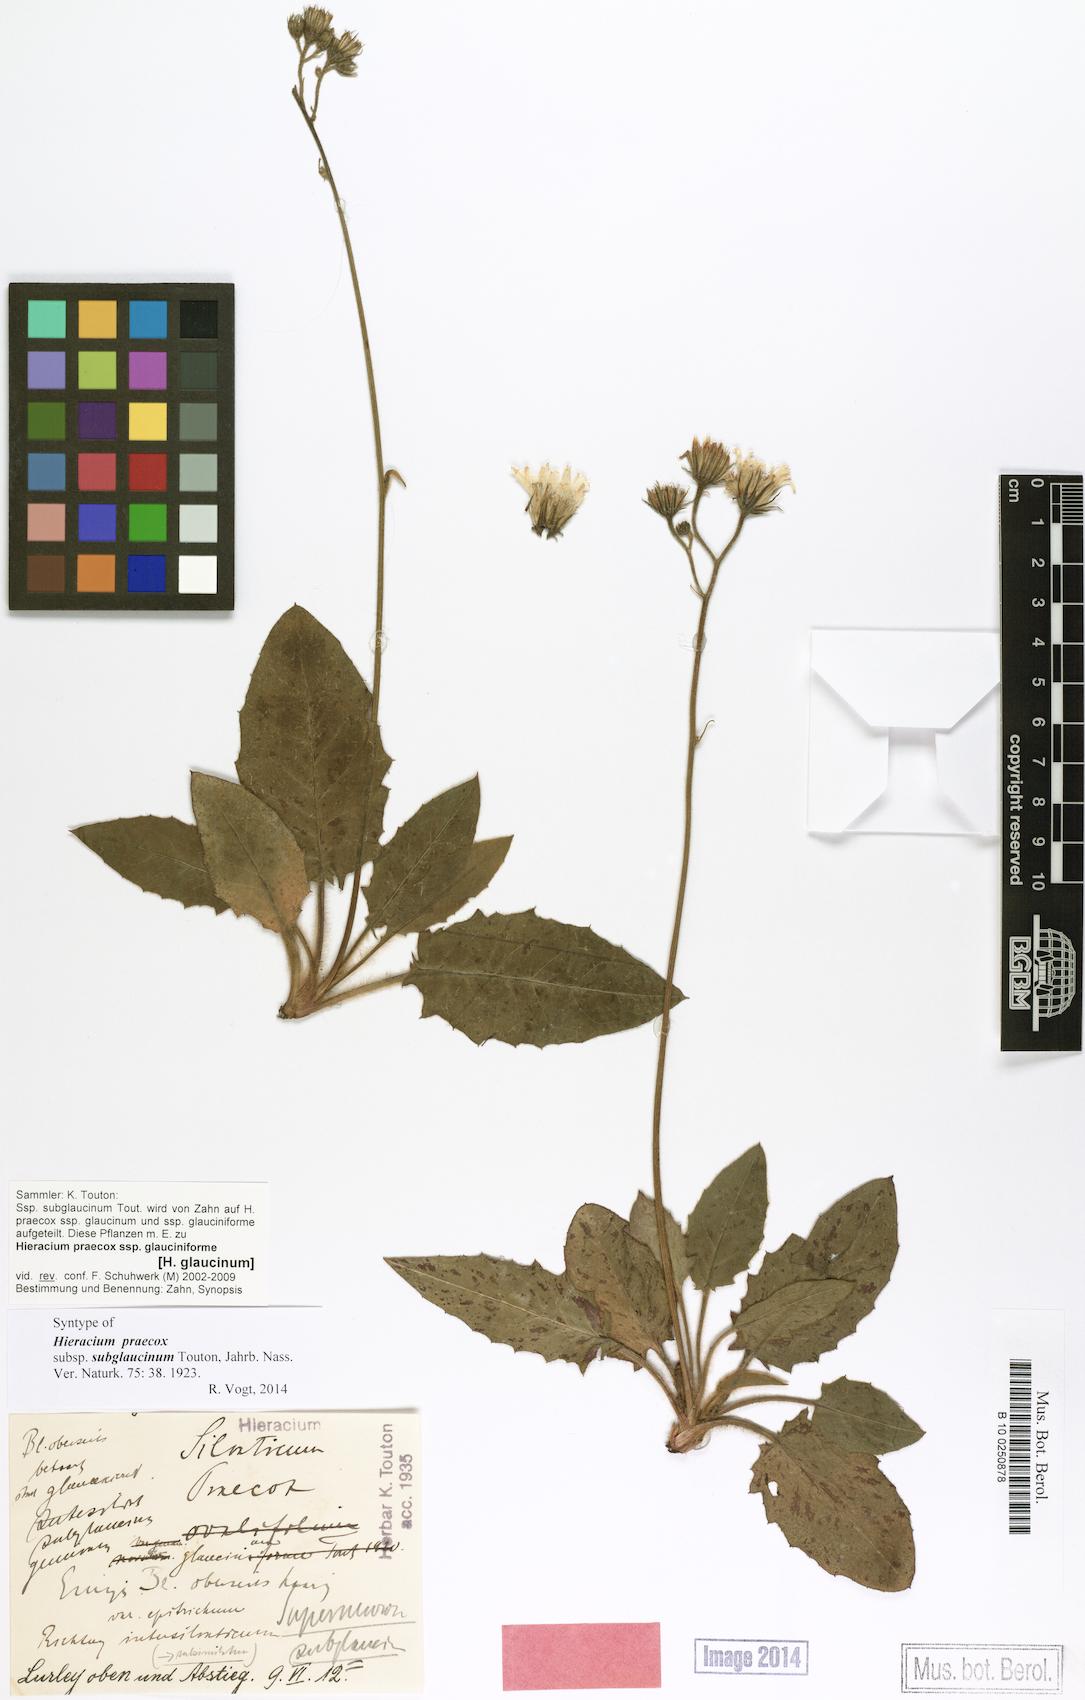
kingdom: Plantae
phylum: Tracheophyta
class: Magnoliopsida
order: Asterales
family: Asteraceae
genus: Hieracium
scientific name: Hieracium glaucinum
